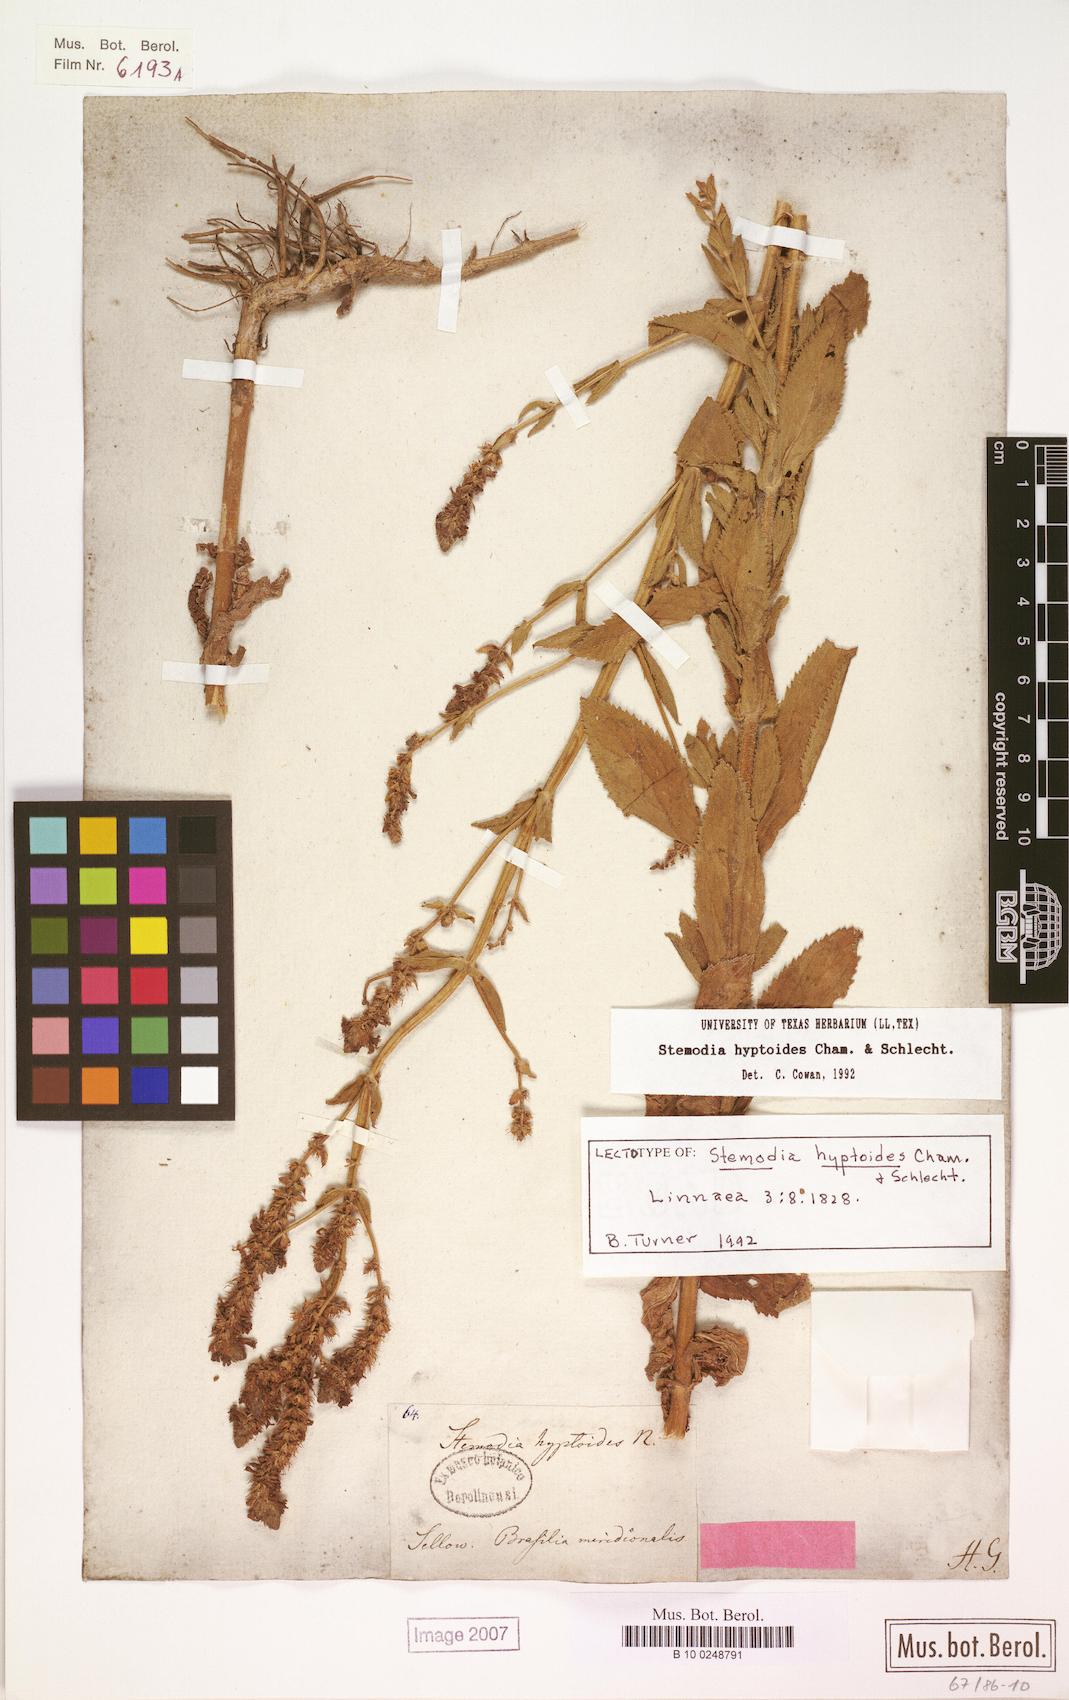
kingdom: Plantae
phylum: Tracheophyta
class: Magnoliopsida
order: Lamiales
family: Plantaginaceae
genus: Stemodia
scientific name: Stemodia hyptoides
